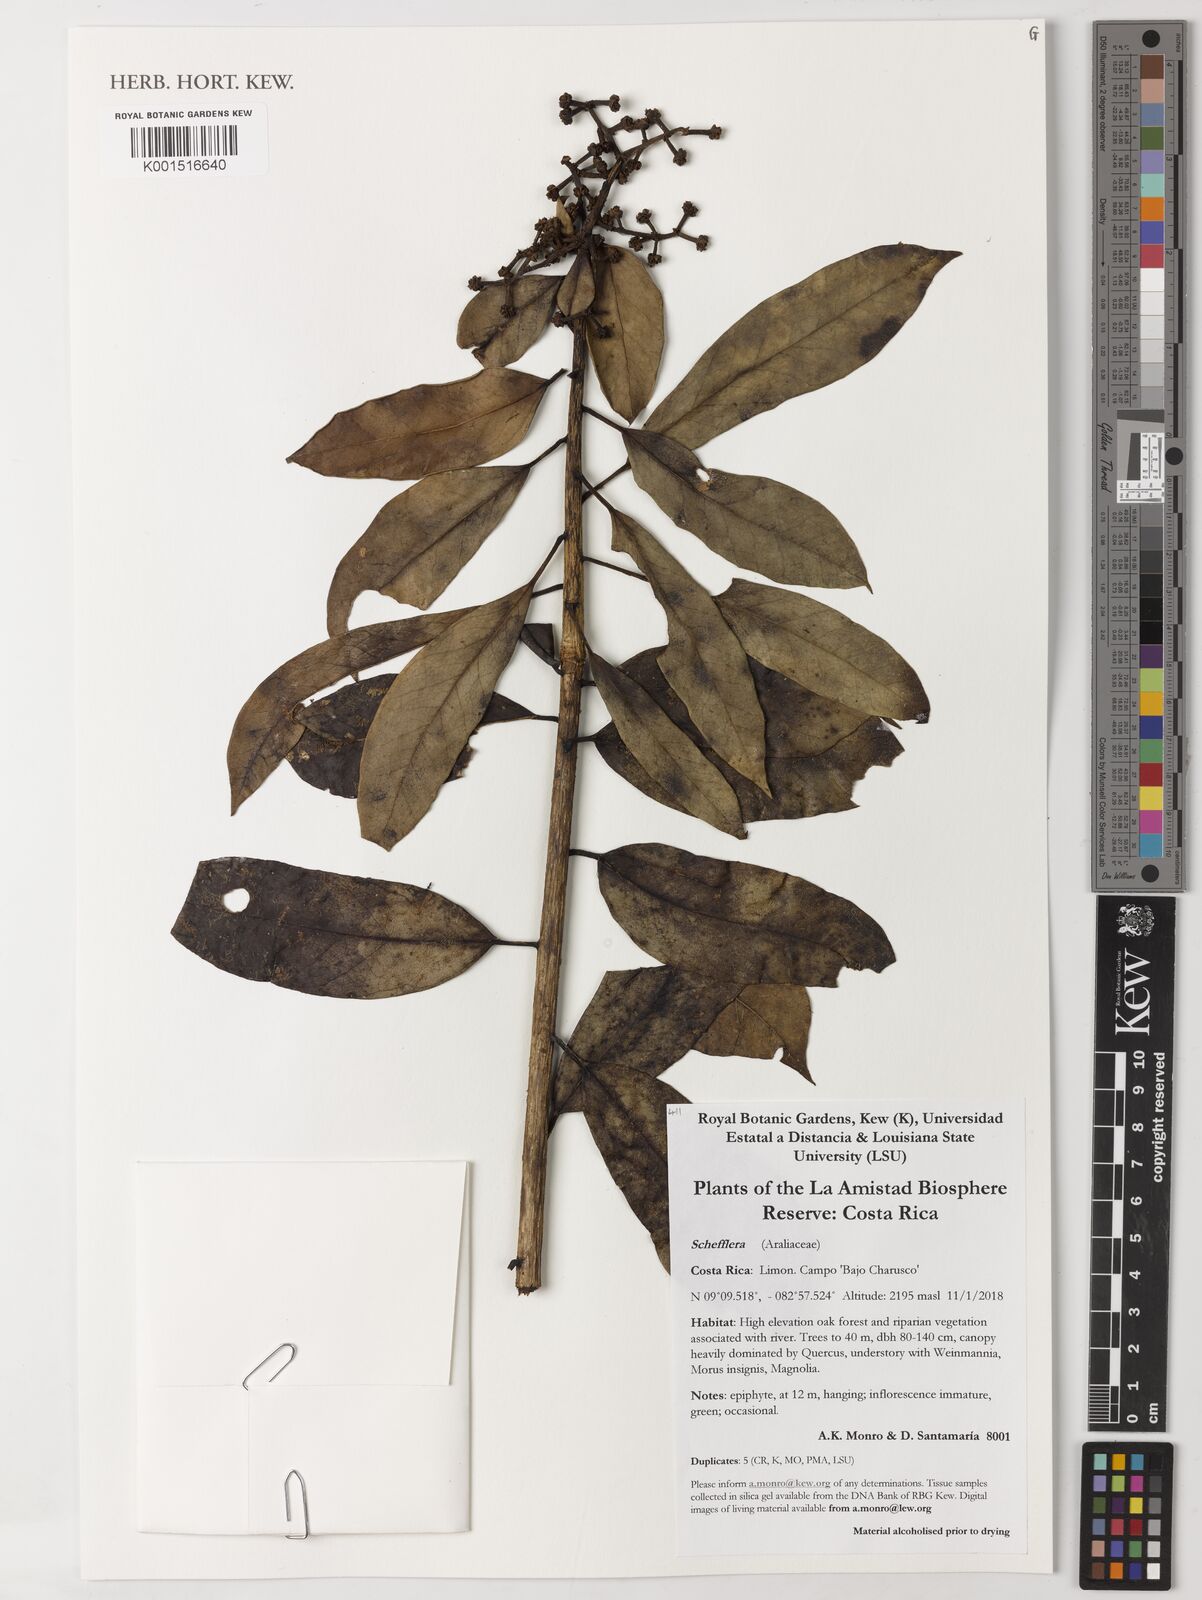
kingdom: Plantae
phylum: Tracheophyta
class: Magnoliopsida
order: Apiales
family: Araliaceae
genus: Oreopanax
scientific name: Oreopanax
